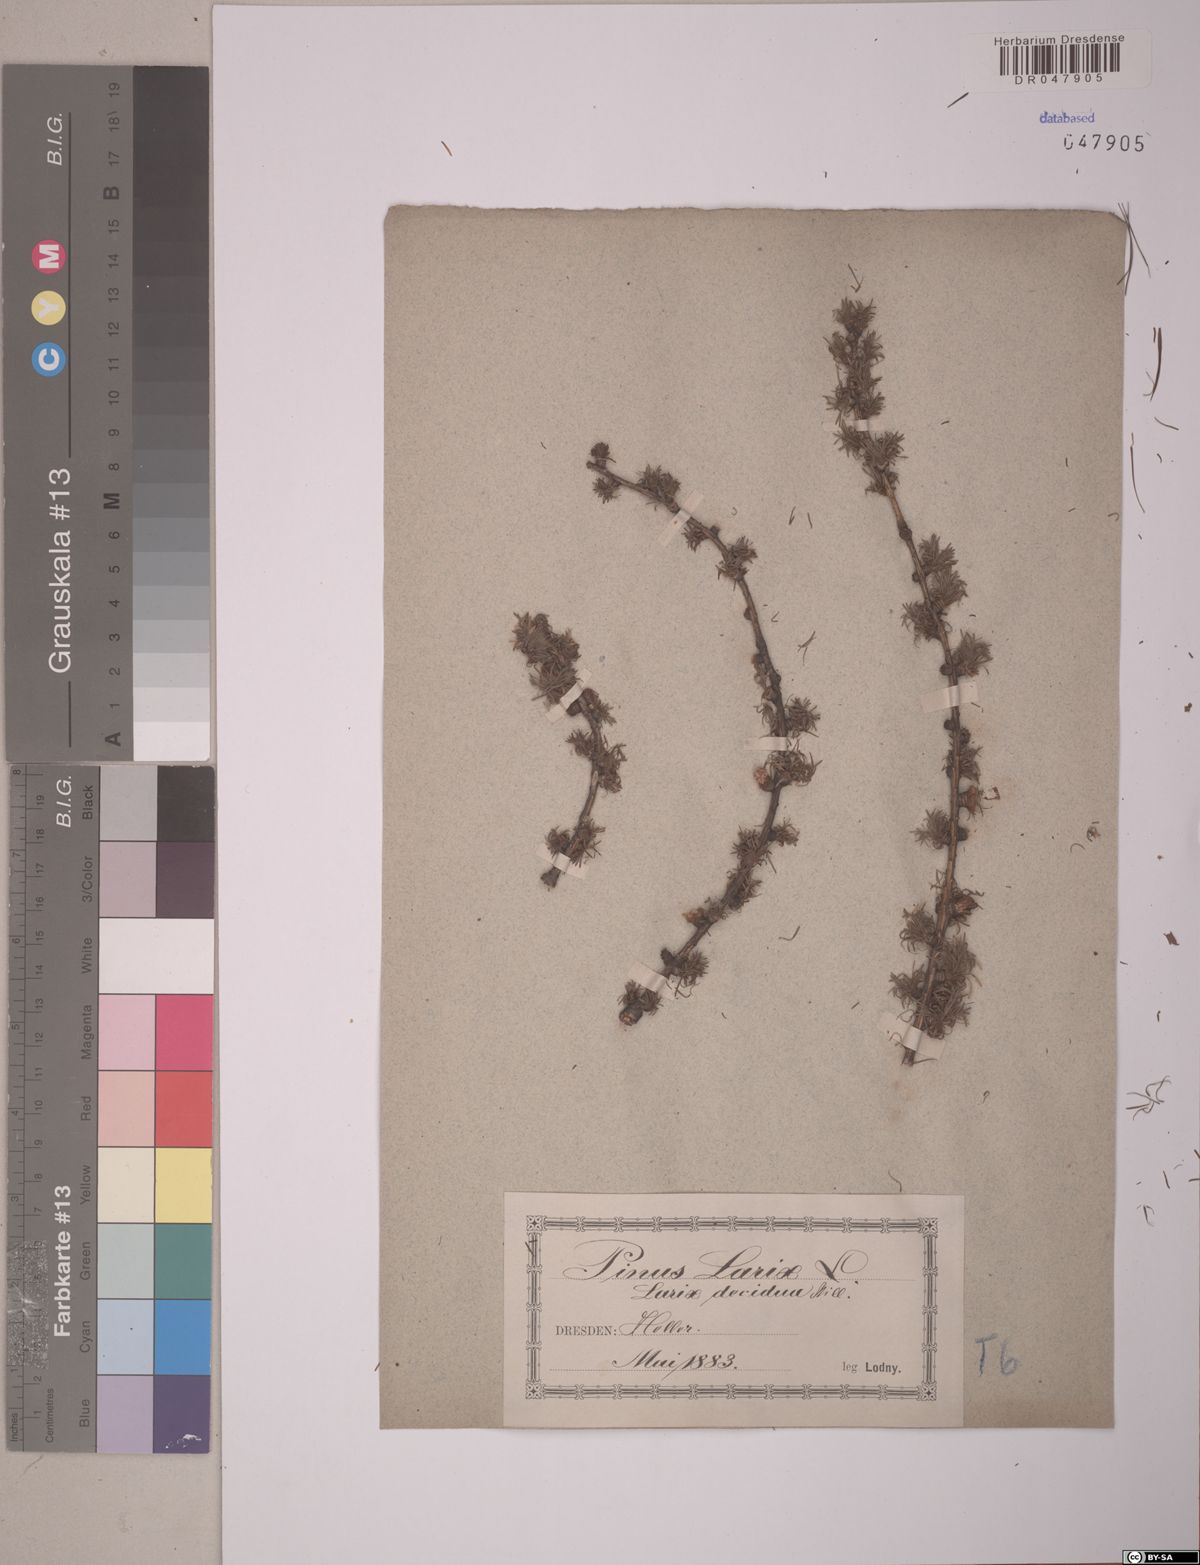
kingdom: Plantae
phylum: Tracheophyta
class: Pinopsida
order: Pinales
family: Pinaceae
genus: Larix
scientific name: Larix decidua
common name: European larch
